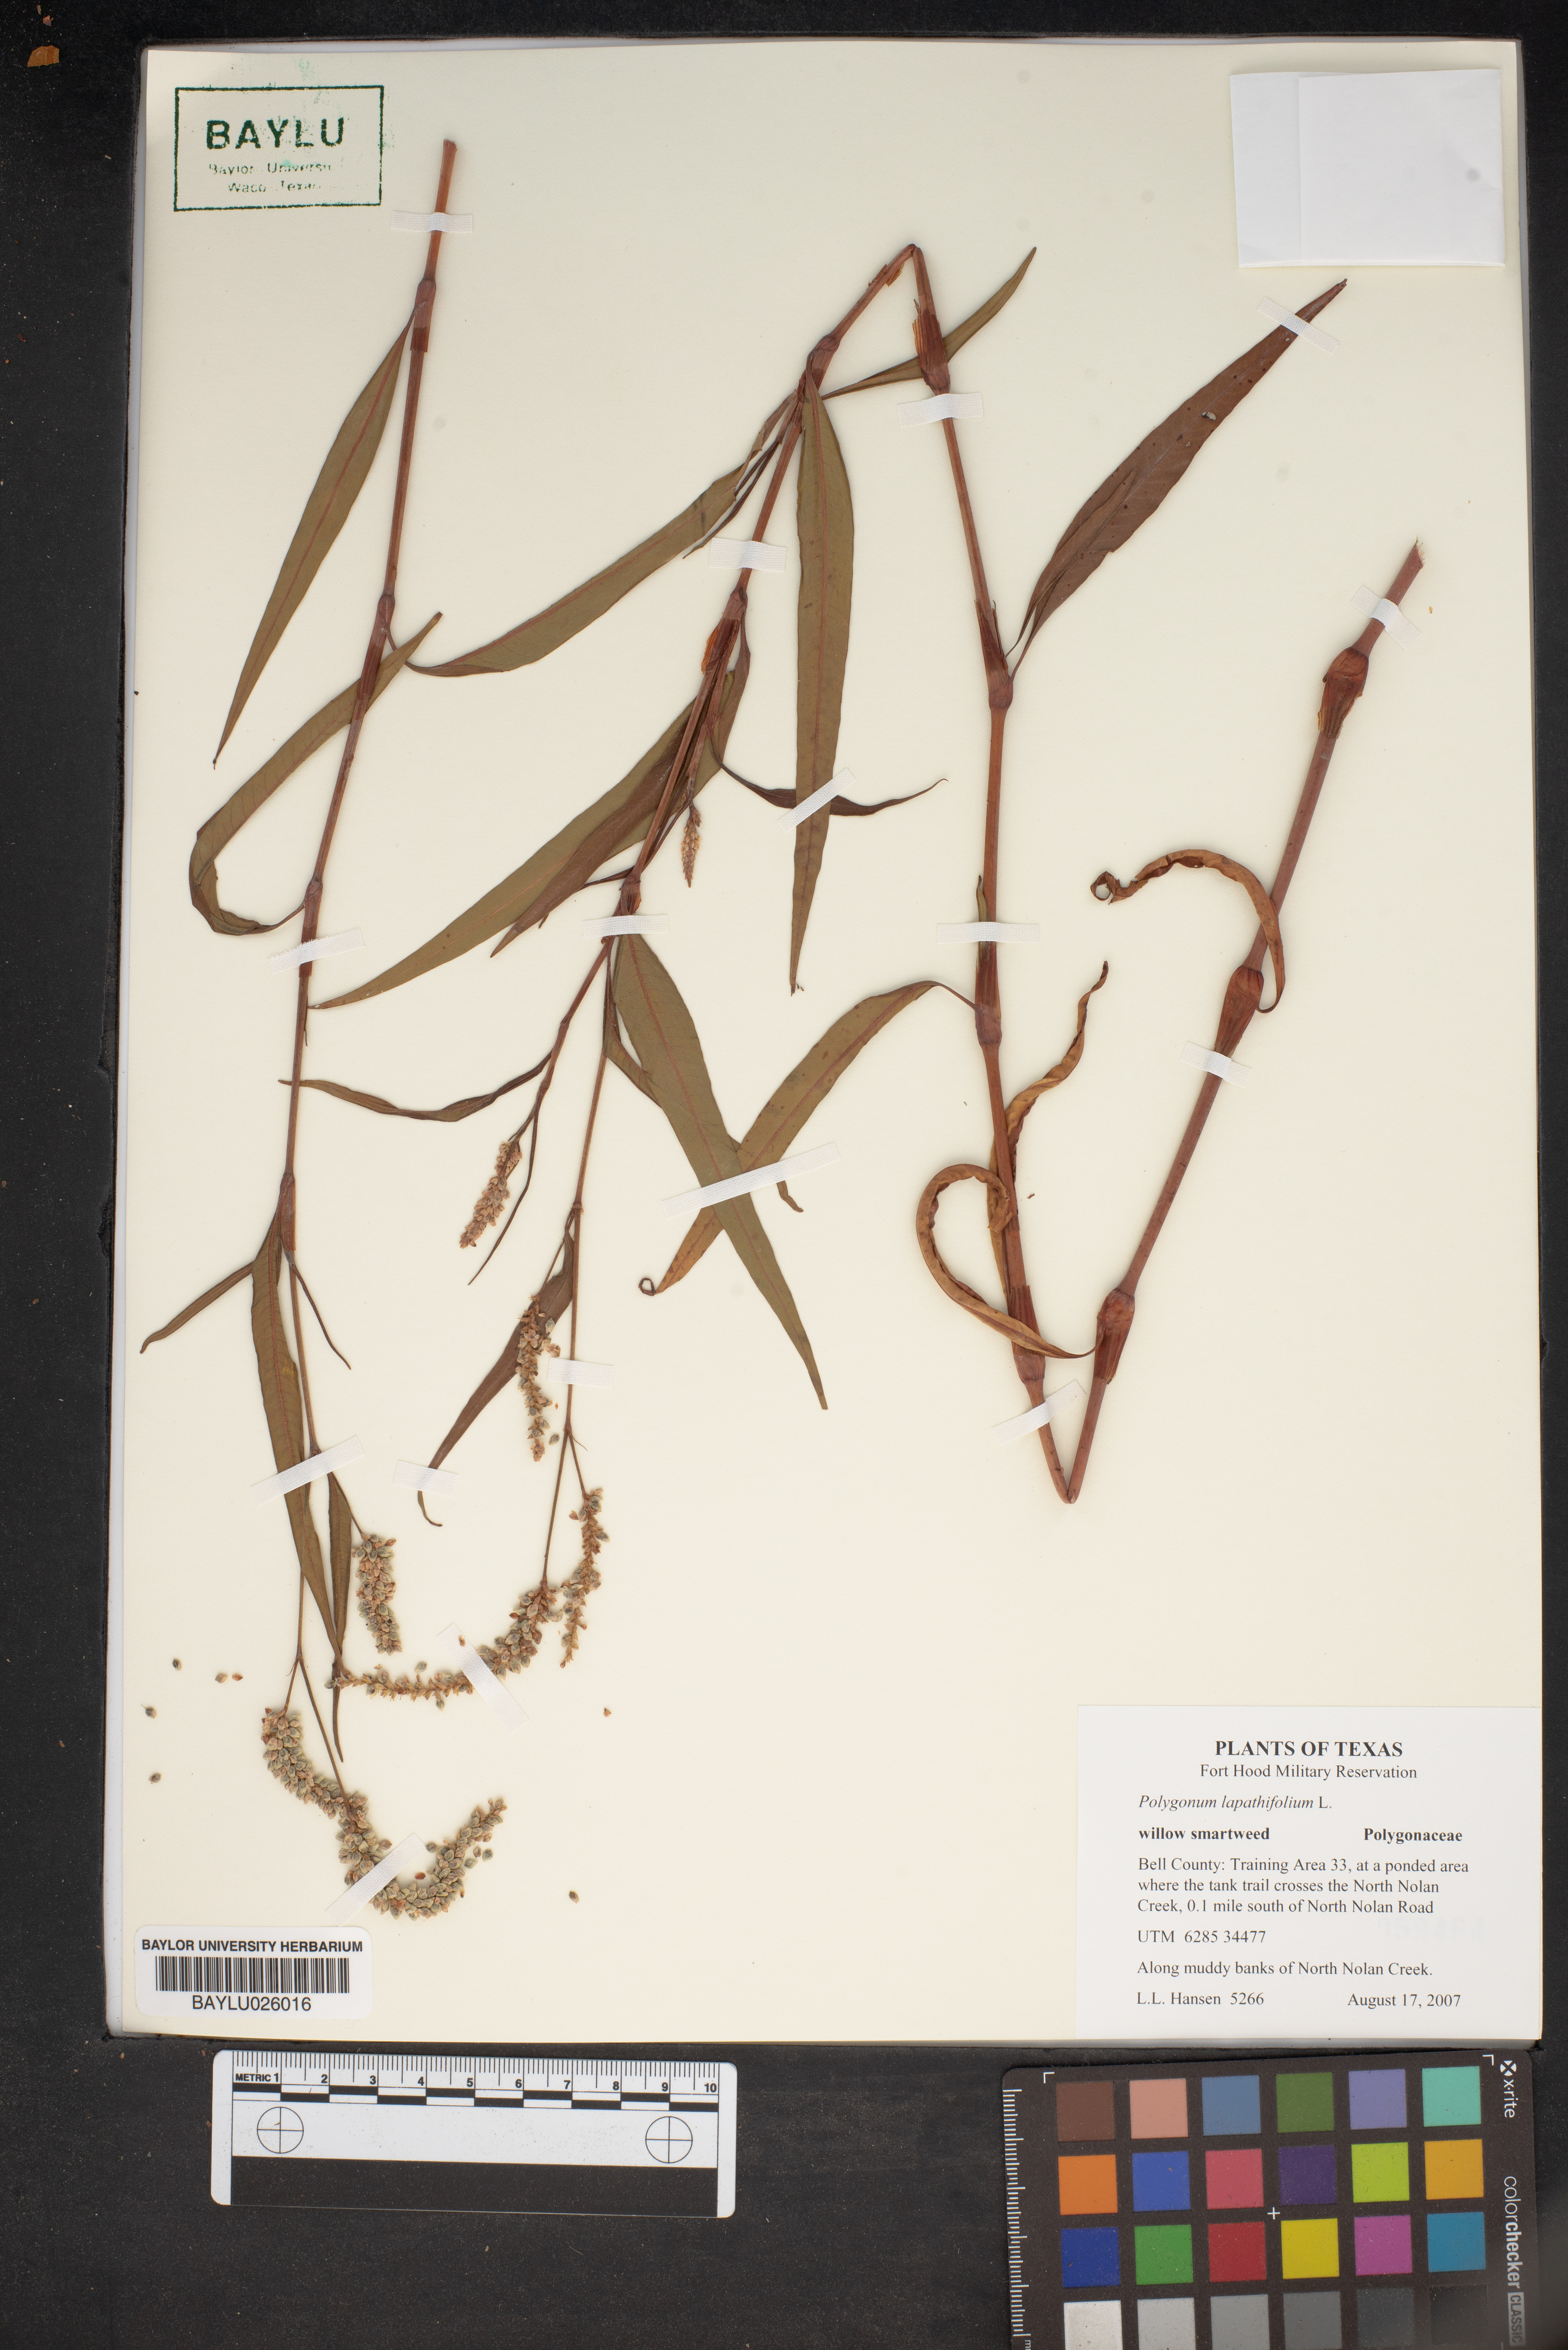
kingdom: Plantae
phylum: Tracheophyta
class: Magnoliopsida
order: Caryophyllales
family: Polygonaceae
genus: Persicaria
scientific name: Persicaria lapathifolia
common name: Curlytop knotweed
